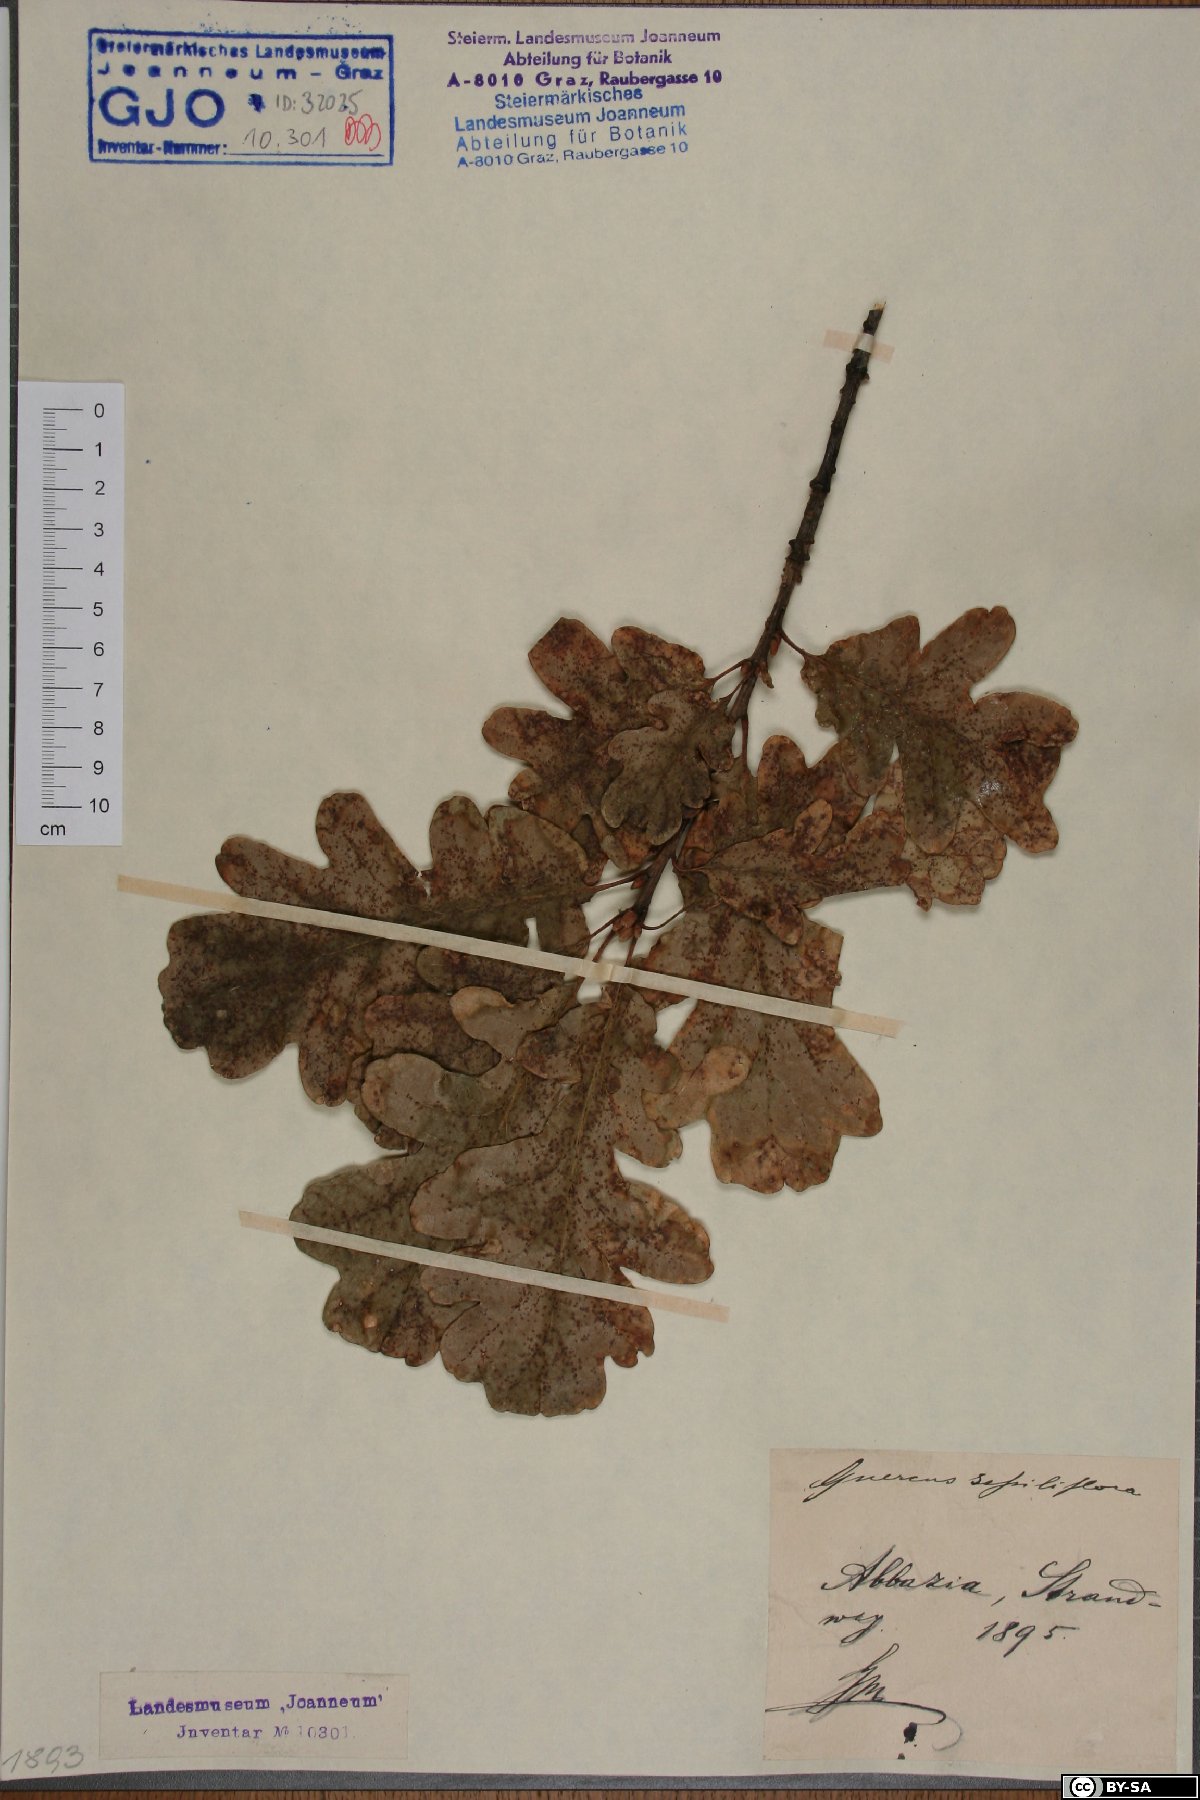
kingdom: Plantae
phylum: Tracheophyta
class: Magnoliopsida
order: Fagales
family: Fagaceae
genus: Quercus
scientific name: Quercus petraea
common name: Sessile oak
